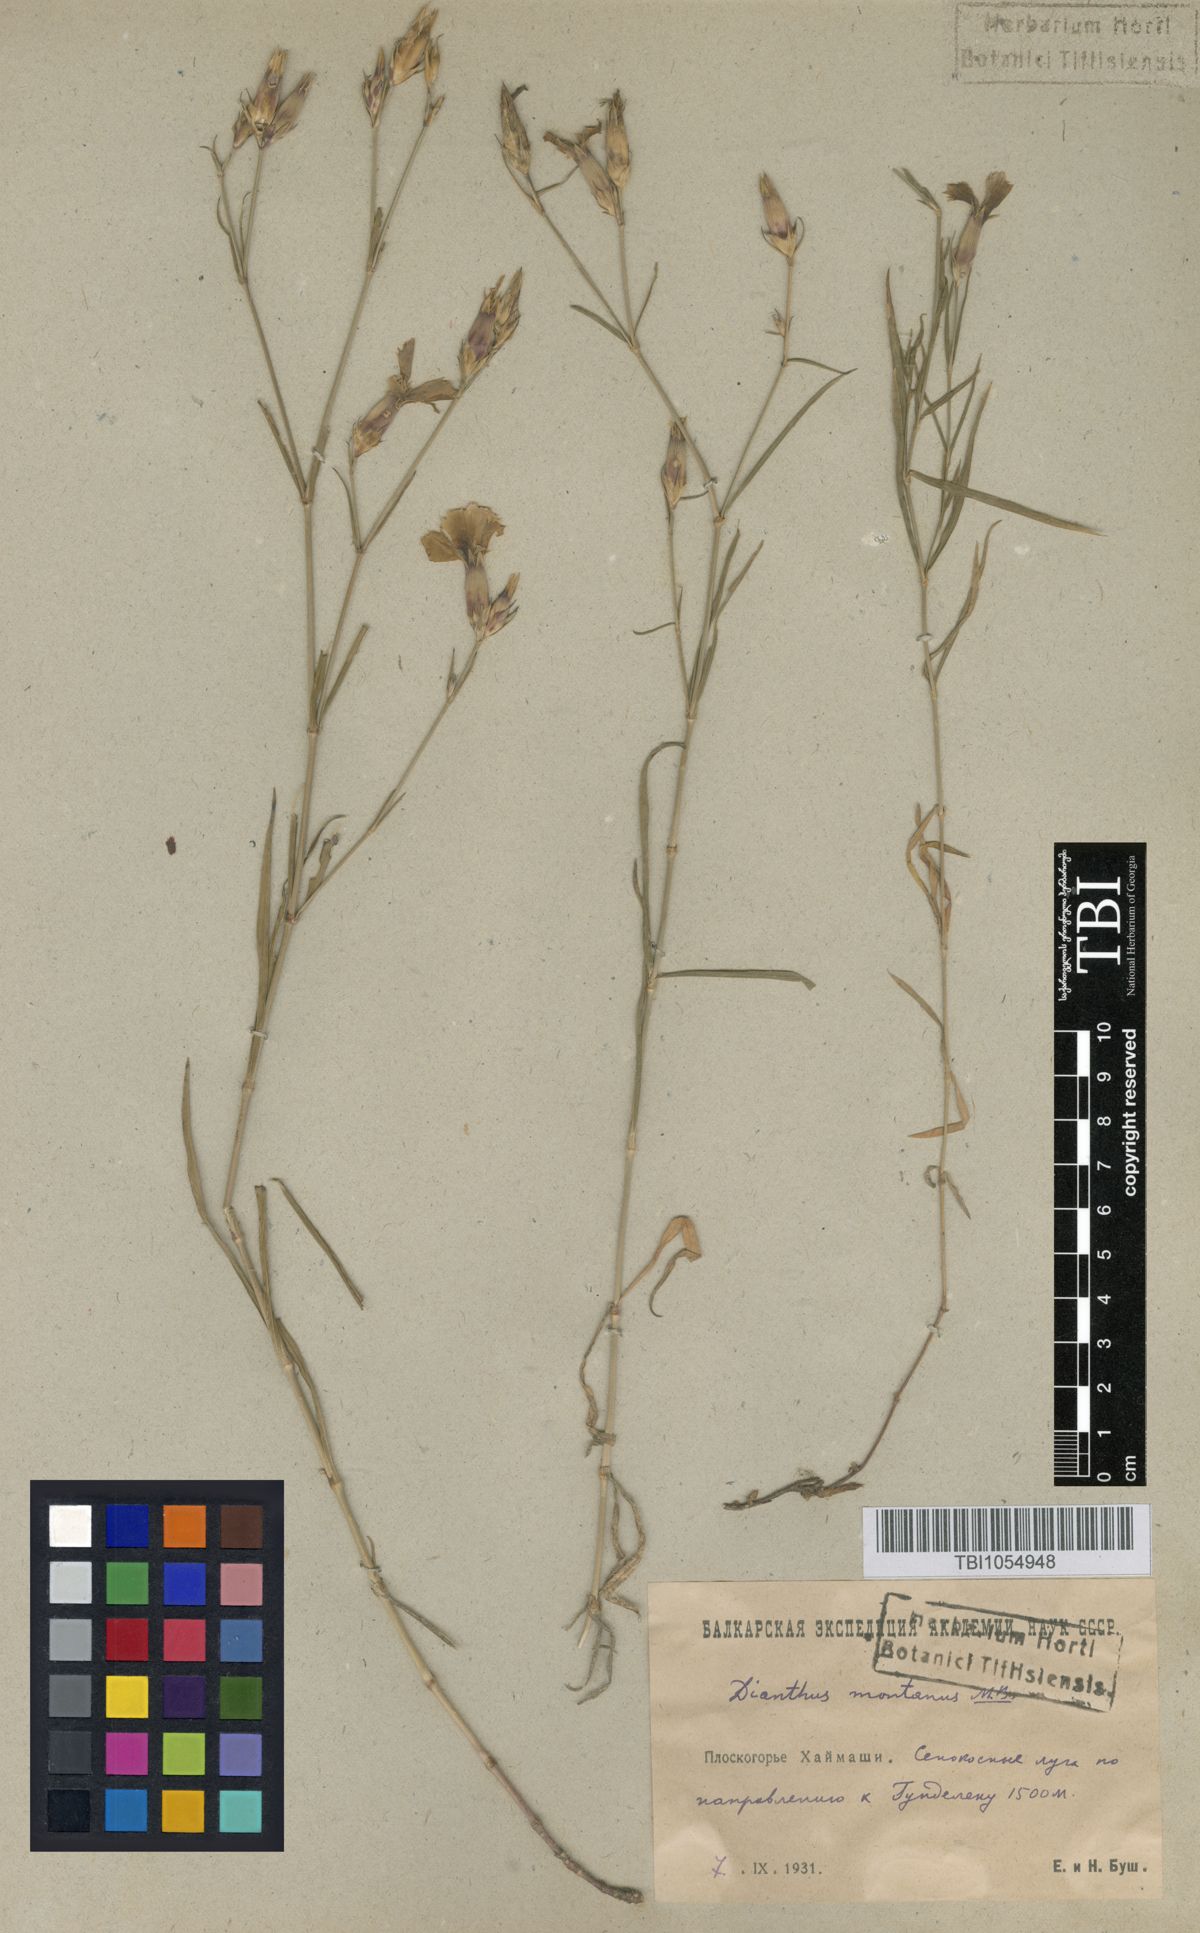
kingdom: Plantae
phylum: Tracheophyta
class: Magnoliopsida
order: Caryophyllales
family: Caryophyllaceae
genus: Dianthus
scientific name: Dianthus caucaseus
